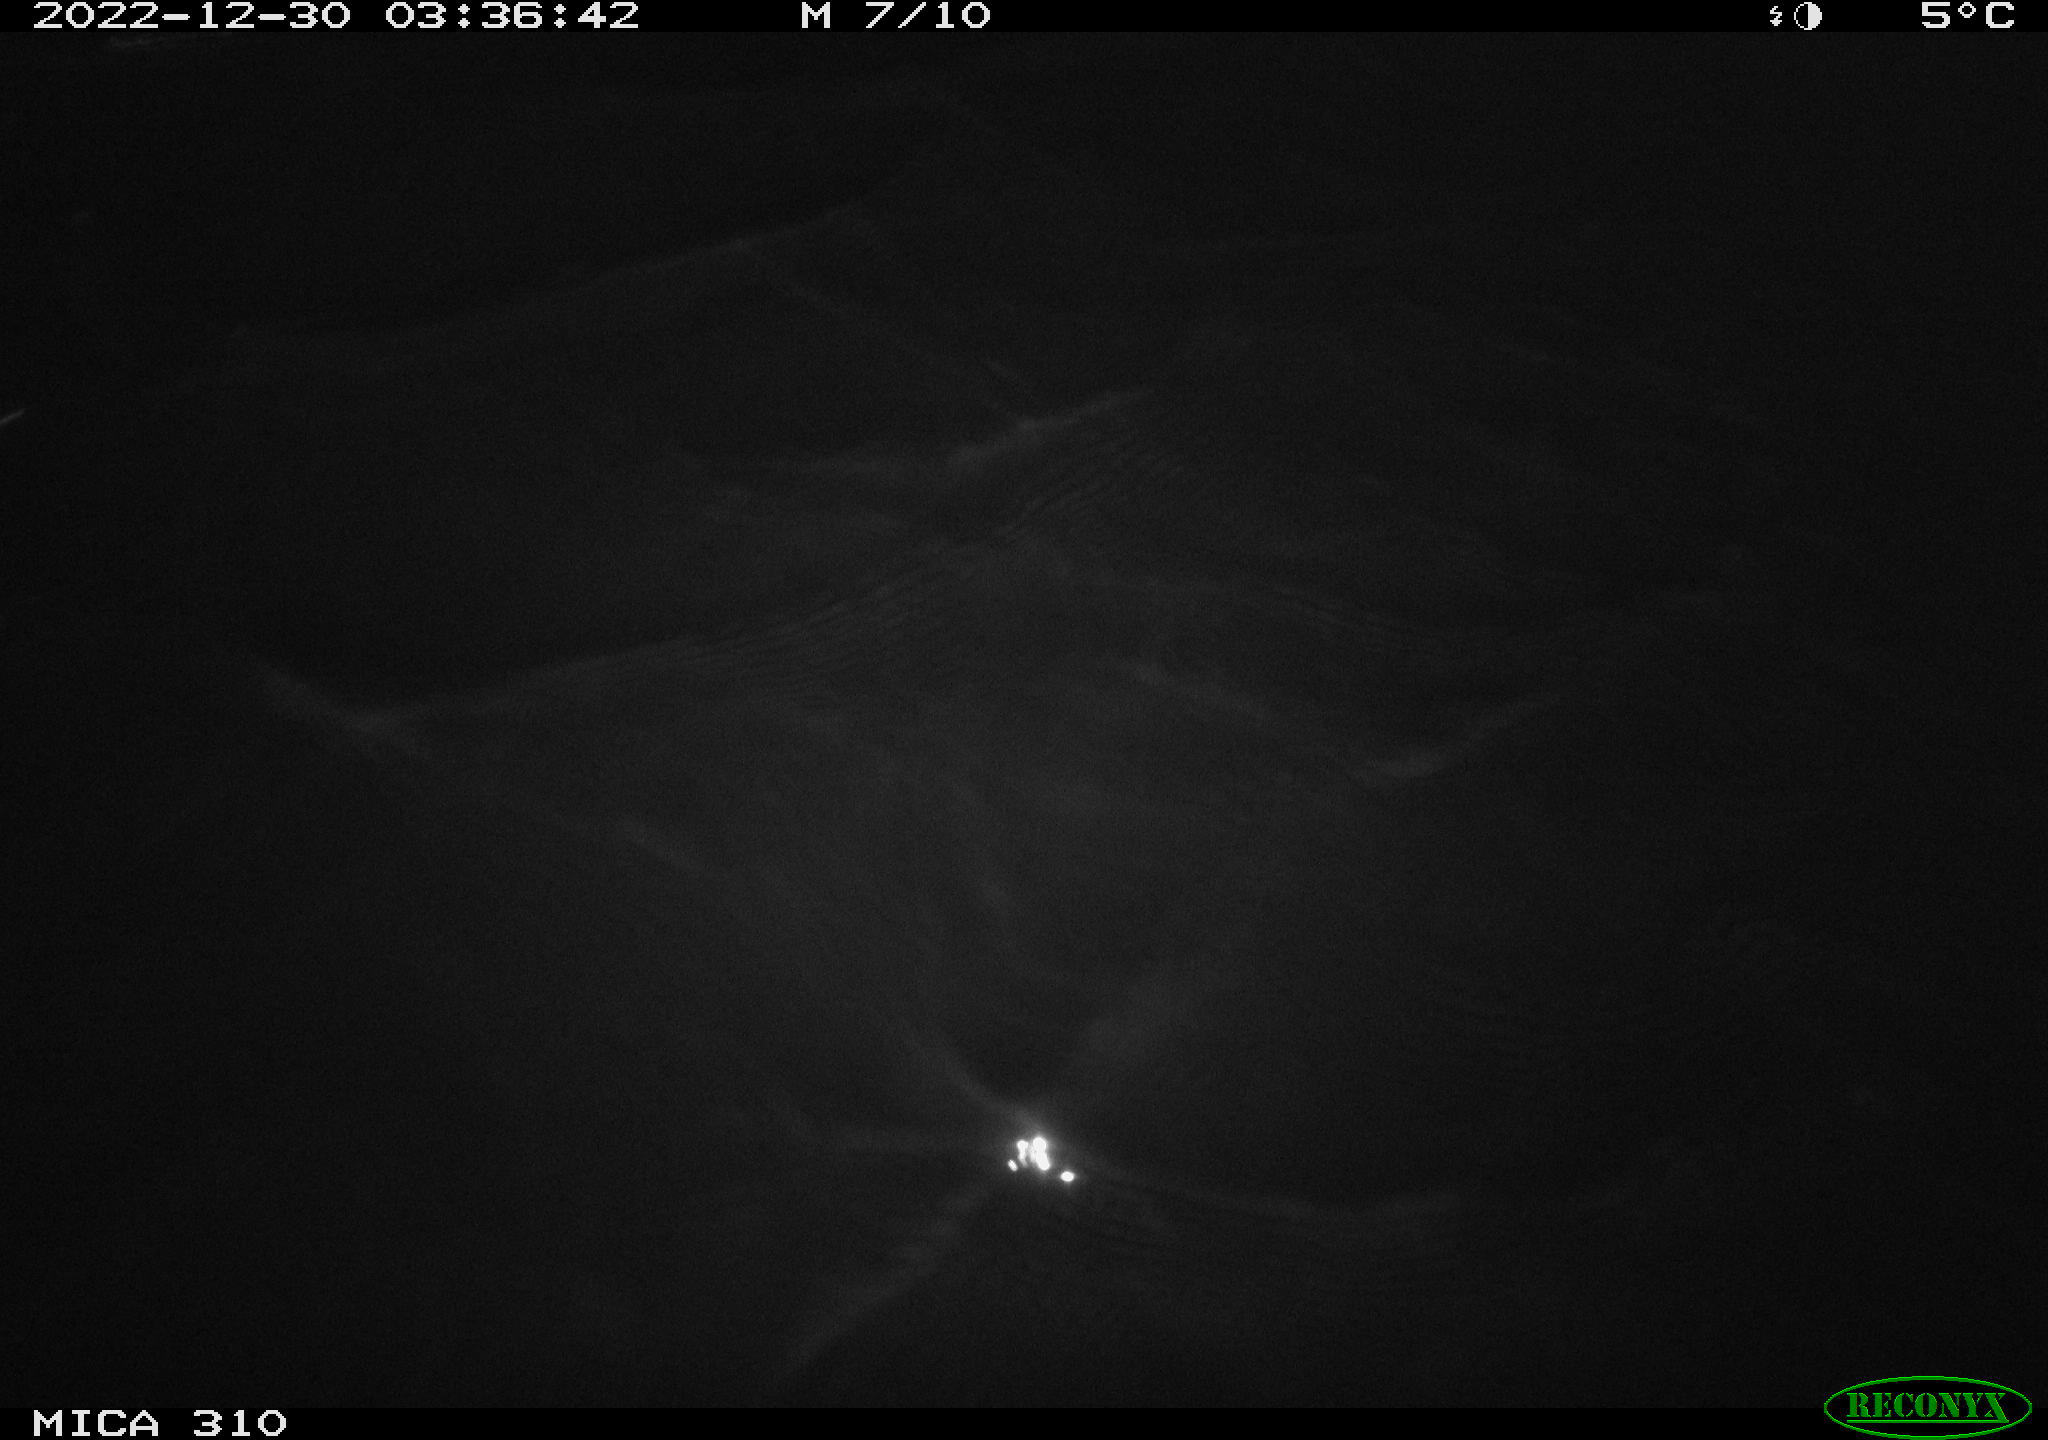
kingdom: Animalia
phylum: Chordata
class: Mammalia
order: Rodentia
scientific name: Rodentia
